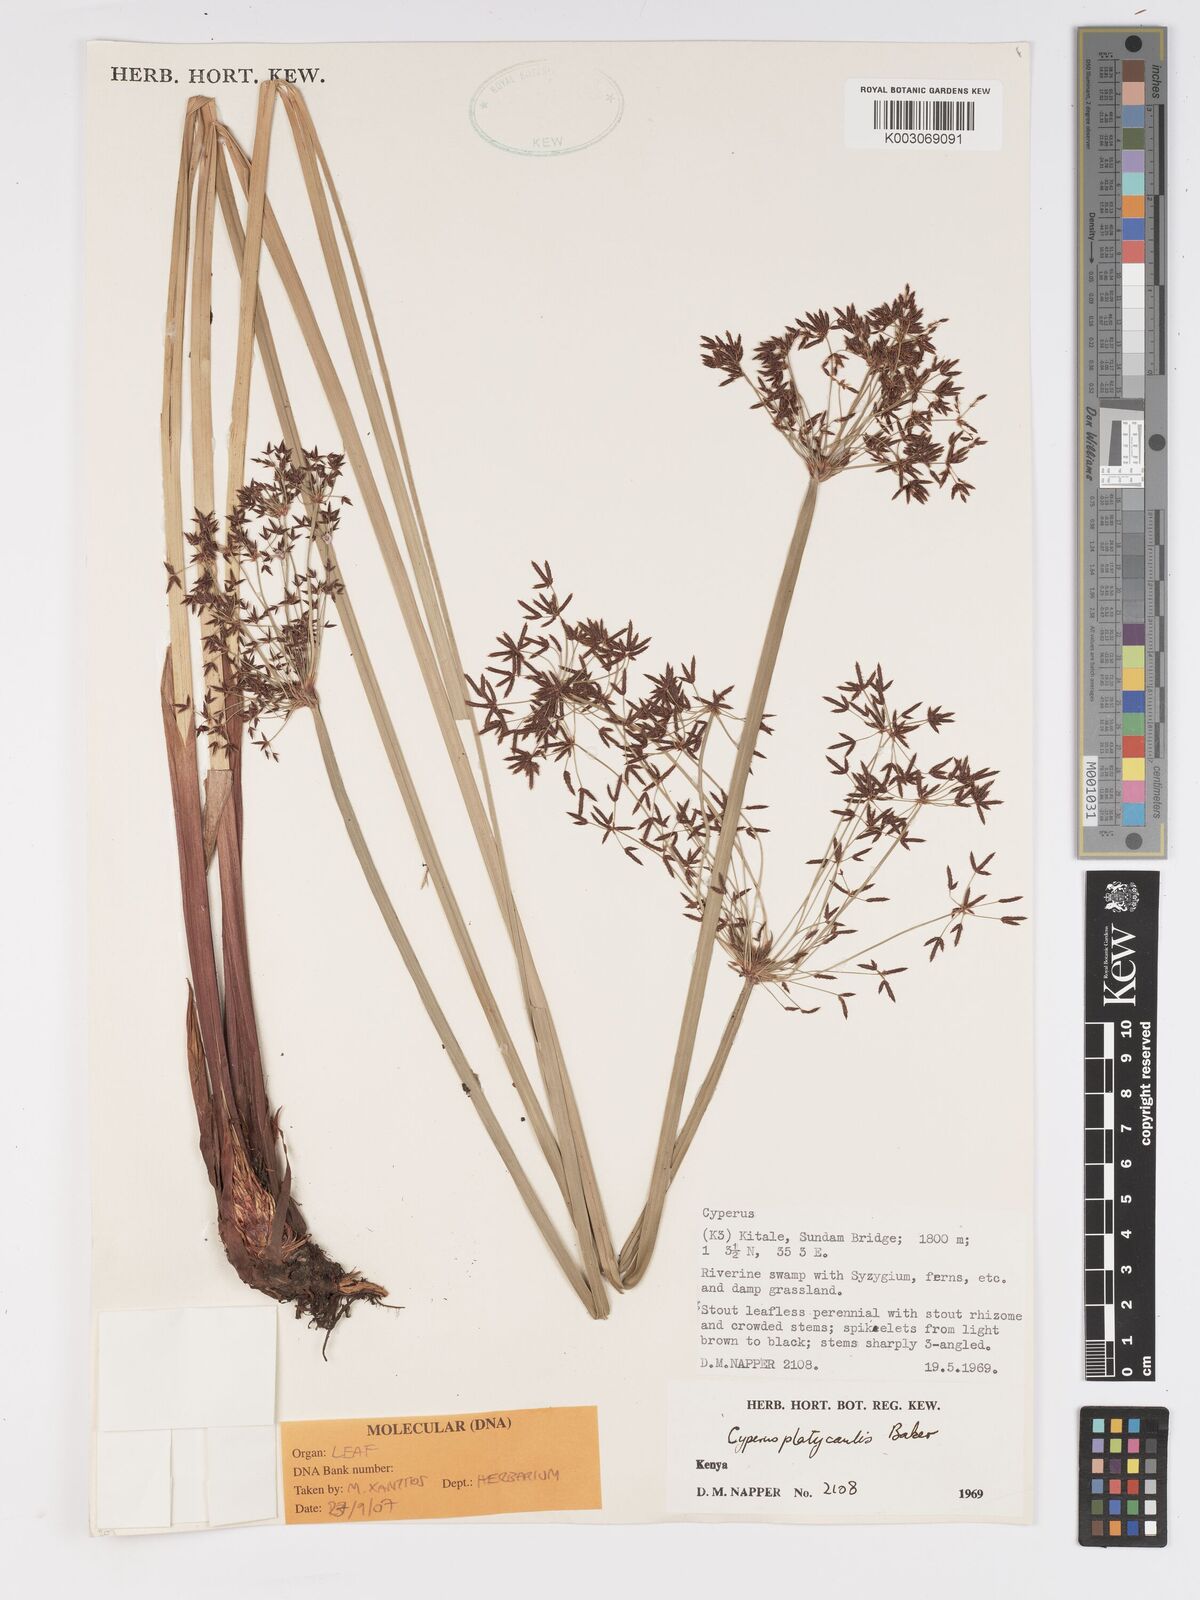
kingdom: Plantae
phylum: Tracheophyta
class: Liliopsida
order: Poales
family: Cyperaceae
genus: Cyperus
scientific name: Cyperus platycaulis
